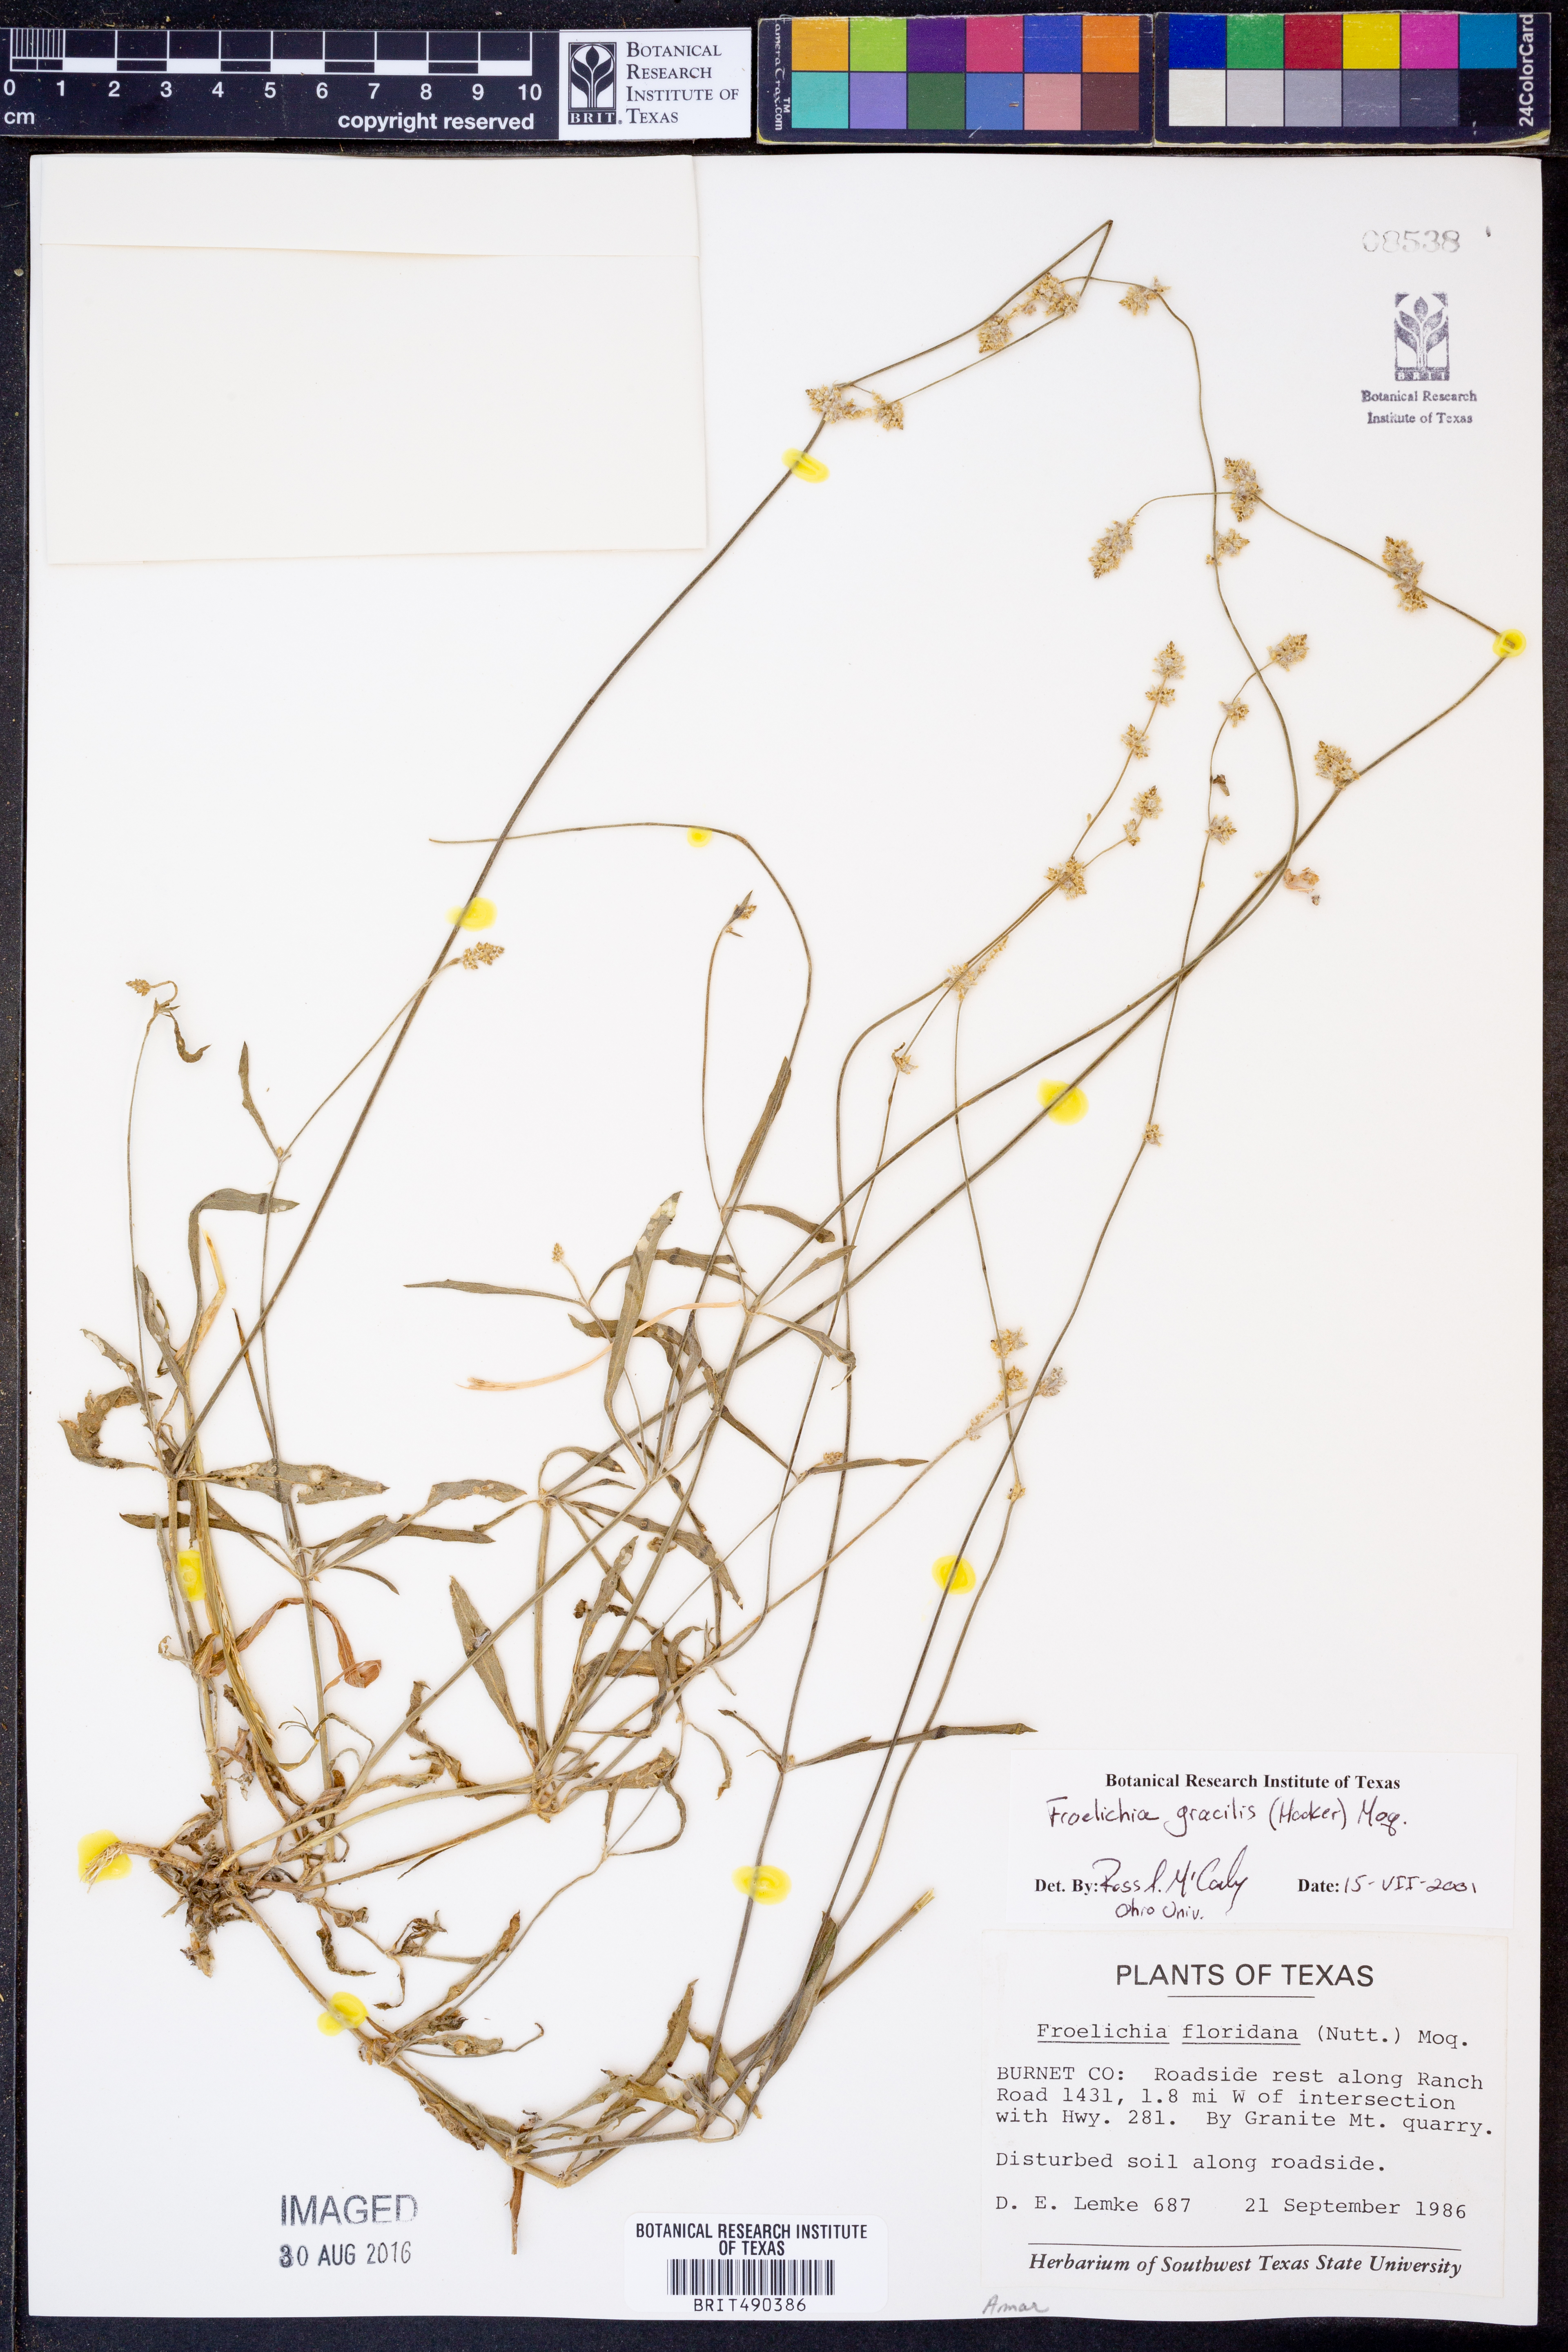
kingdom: Plantae
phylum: Tracheophyta
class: Magnoliopsida
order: Caryophyllales
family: Amaranthaceae
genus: Froelichia
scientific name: Froelichia gracilis
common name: Slender cottonweed
